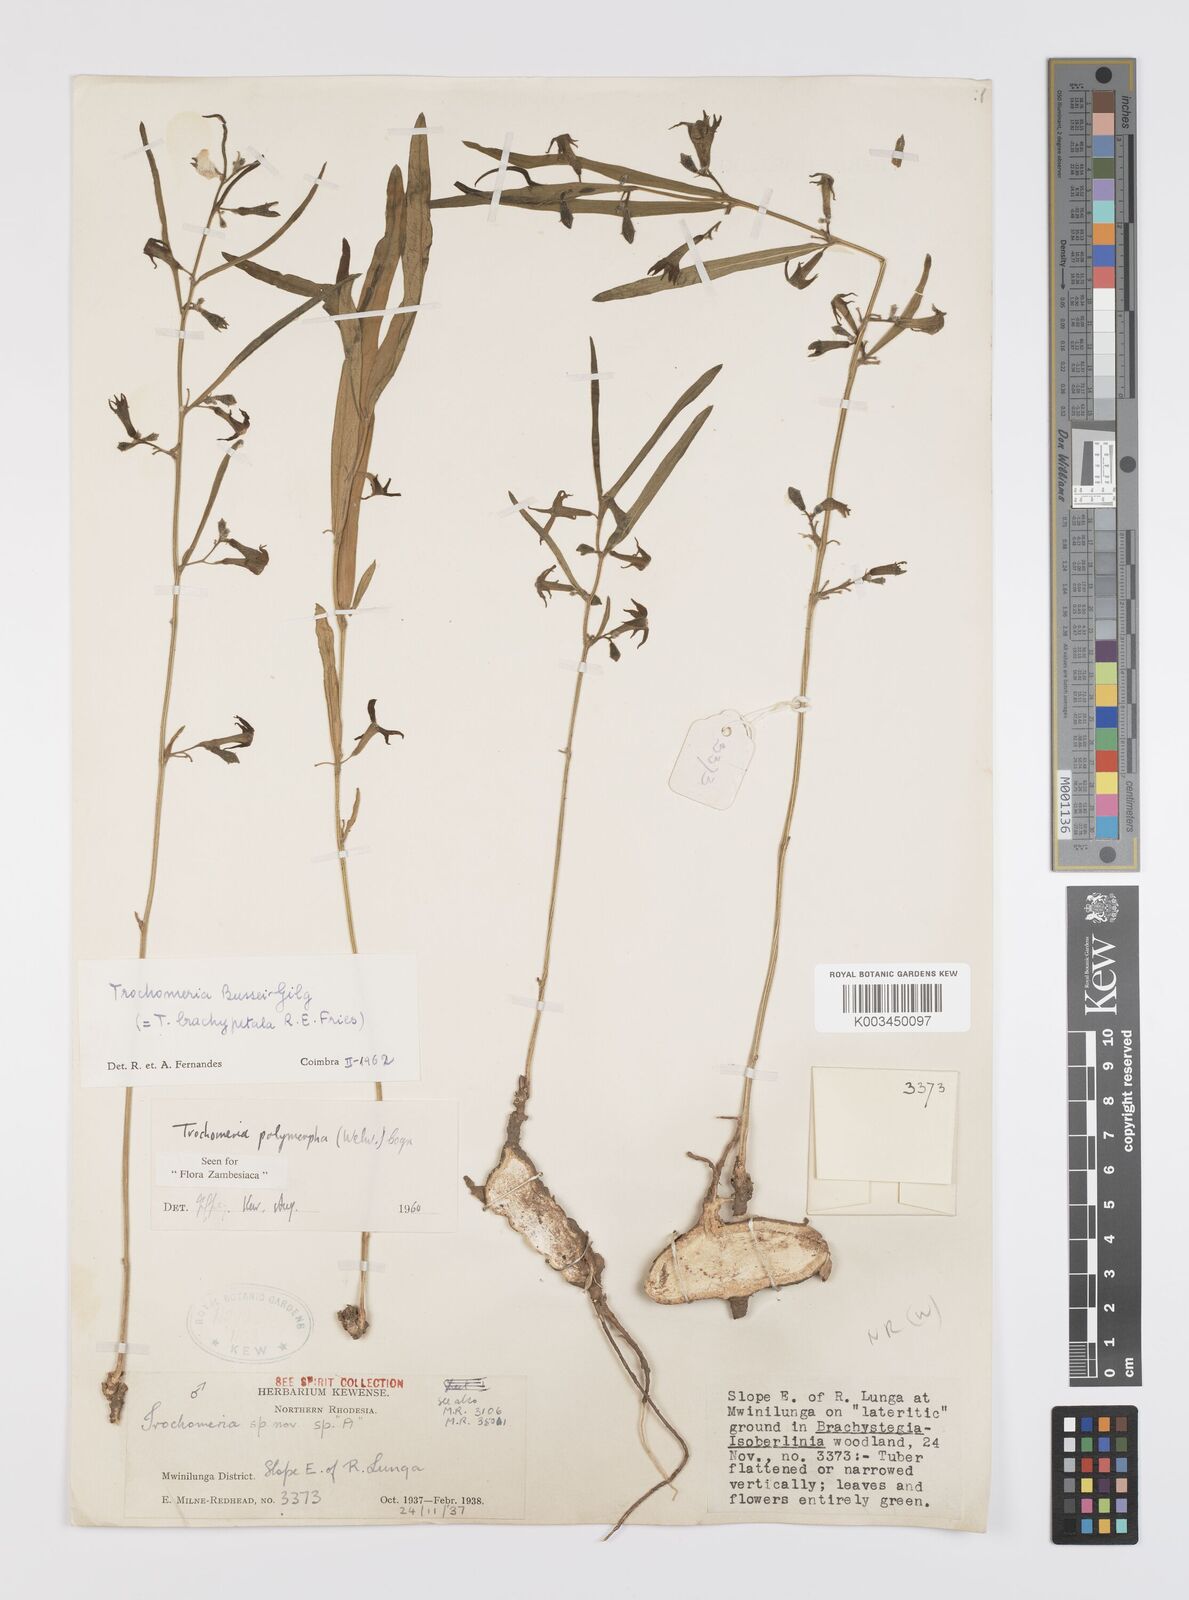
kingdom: Plantae
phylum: Tracheophyta
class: Magnoliopsida
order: Cucurbitales
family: Cucurbitaceae
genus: Trochomeria
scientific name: Trochomeria polymorpha
